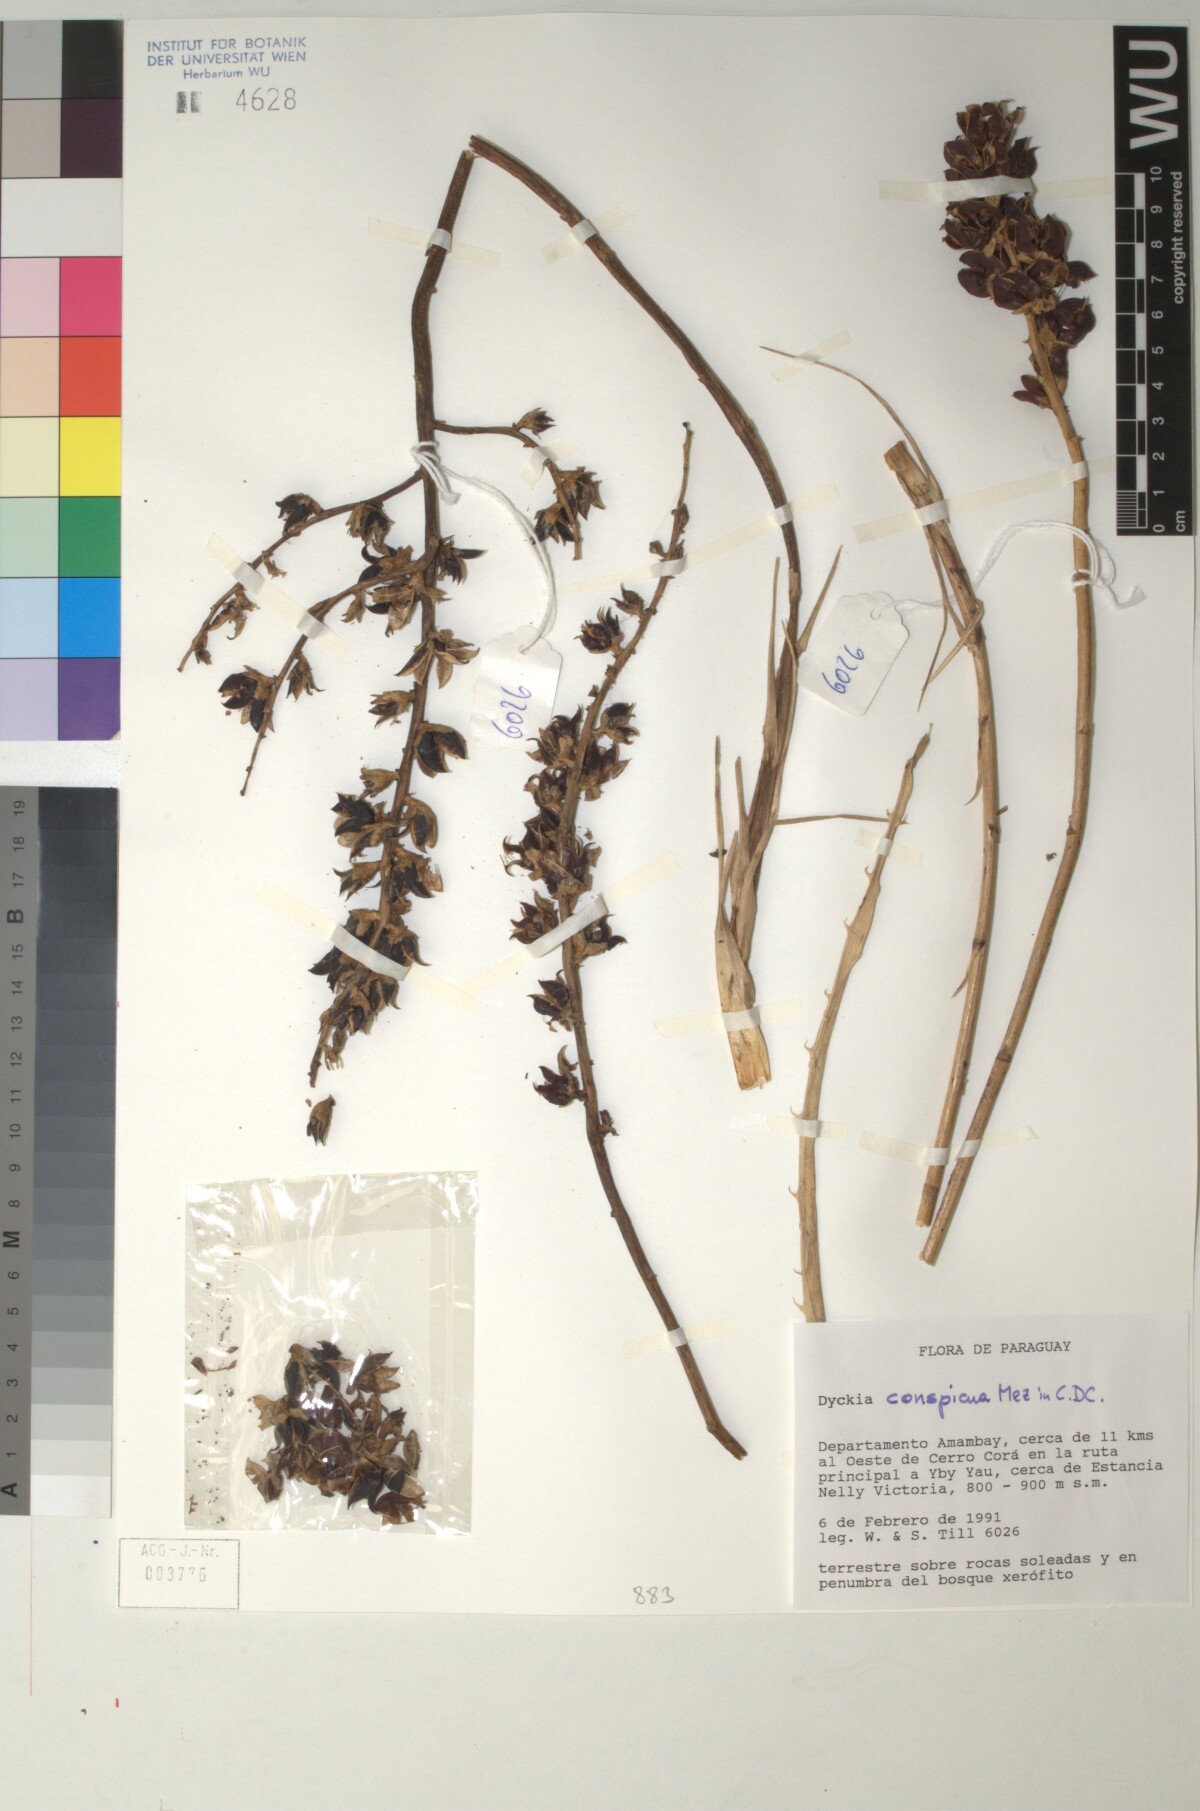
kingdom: Plantae
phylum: Tracheophyta
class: Liliopsida
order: Poales
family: Bromeliaceae
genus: Dyckia
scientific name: Dyckia leptostachya
